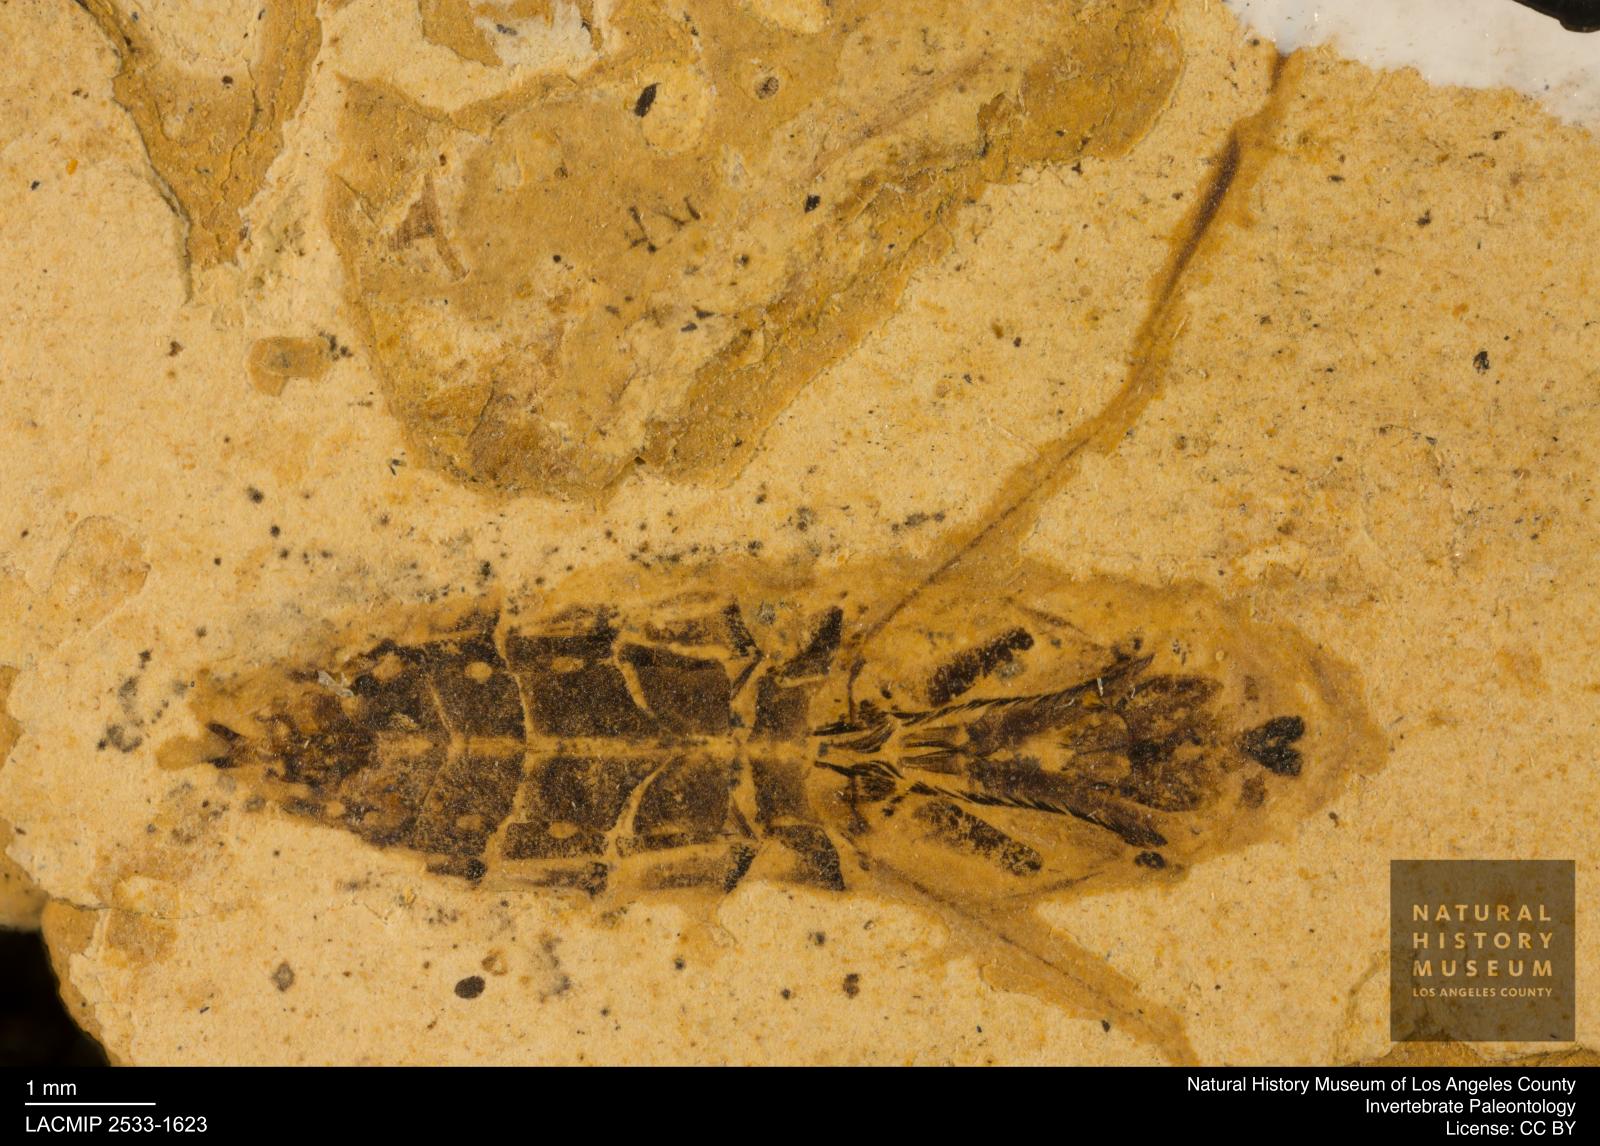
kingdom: Animalia
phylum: Arthropoda
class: Insecta
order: Hemiptera
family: Notonectidae
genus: Notonecta
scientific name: Notonecta
